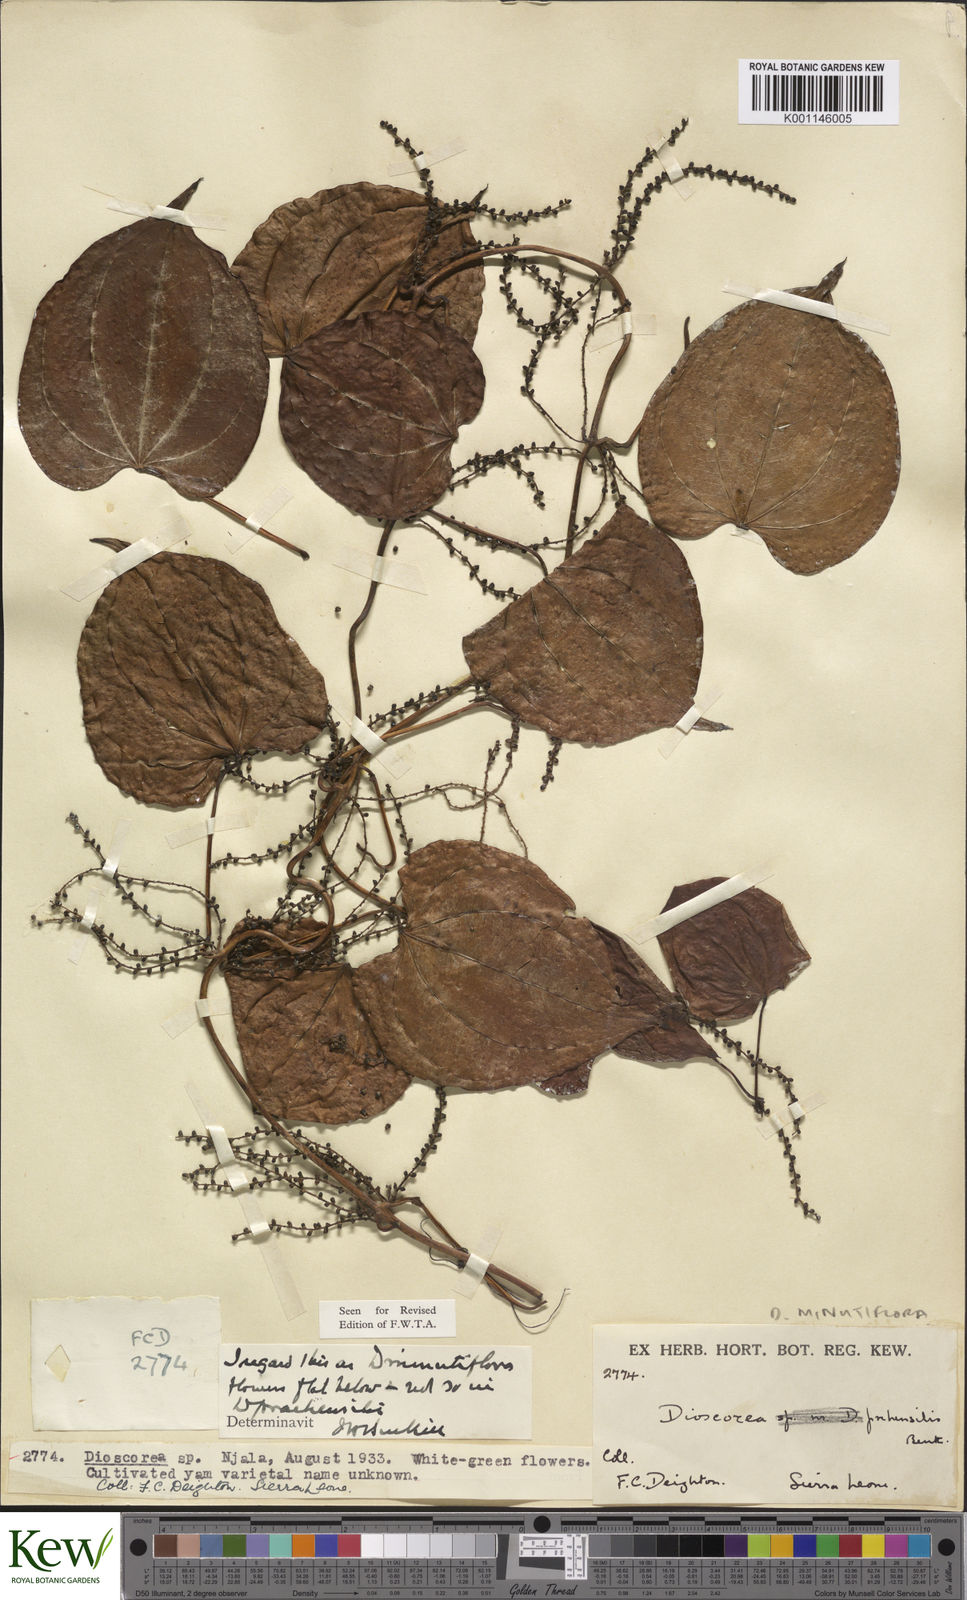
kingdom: Plantae
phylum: Tracheophyta
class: Liliopsida
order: Dioscoreales
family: Dioscoreaceae
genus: Dioscorea
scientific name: Dioscorea minutiflora
